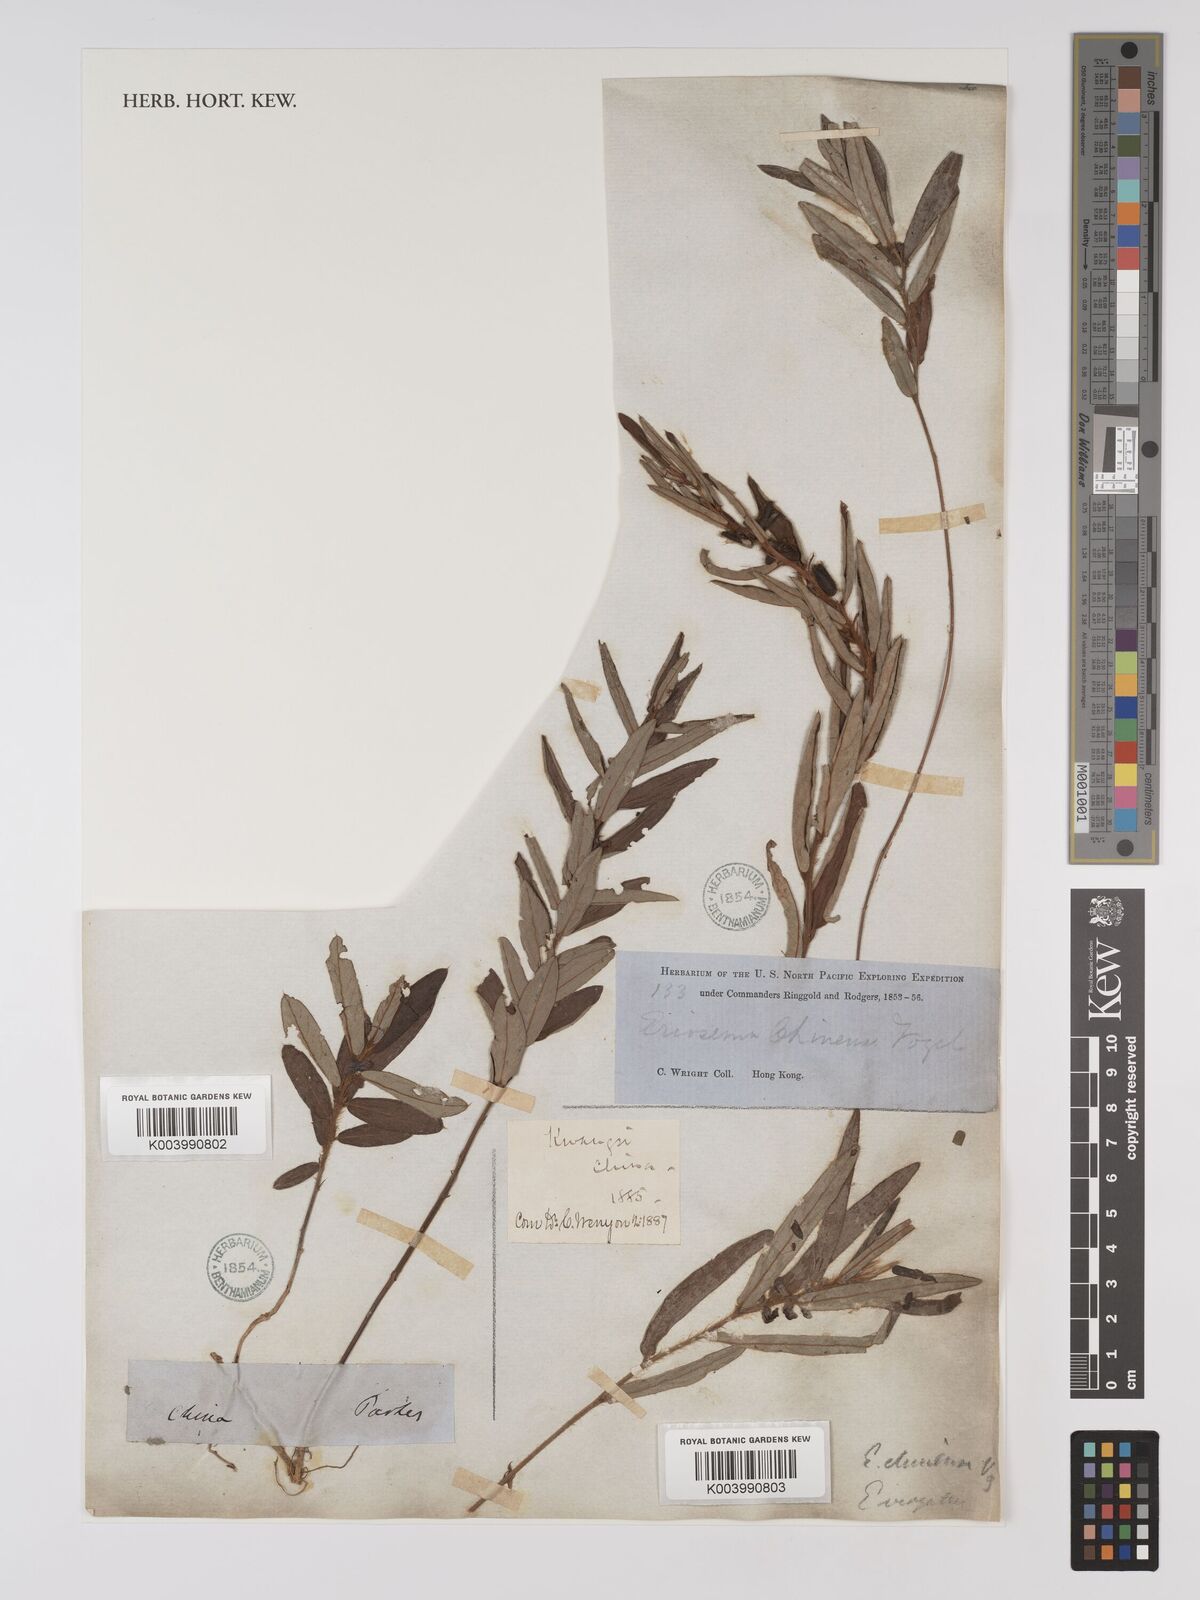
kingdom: Plantae
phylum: Tracheophyta
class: Magnoliopsida
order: Fabales
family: Fabaceae
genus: Eriosema
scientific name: Eriosema chinense
